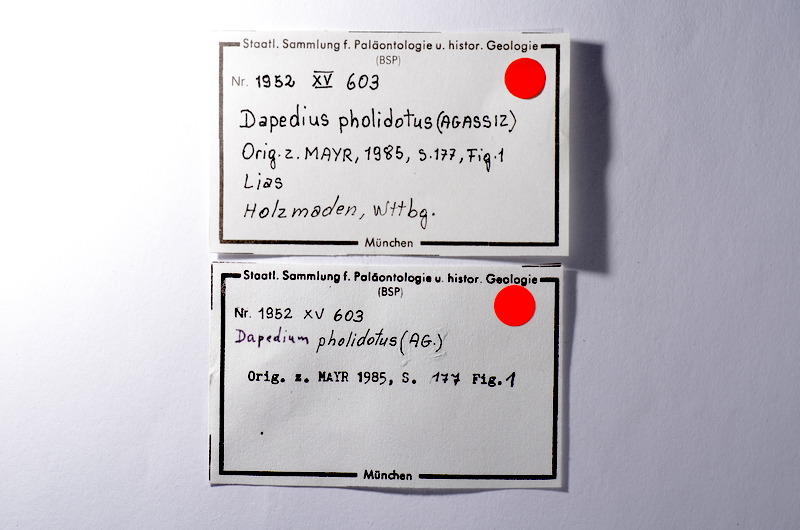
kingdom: Animalia
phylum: Chordata
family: Dapediidae
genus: Dapedium
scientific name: Dapedium pholidotum
